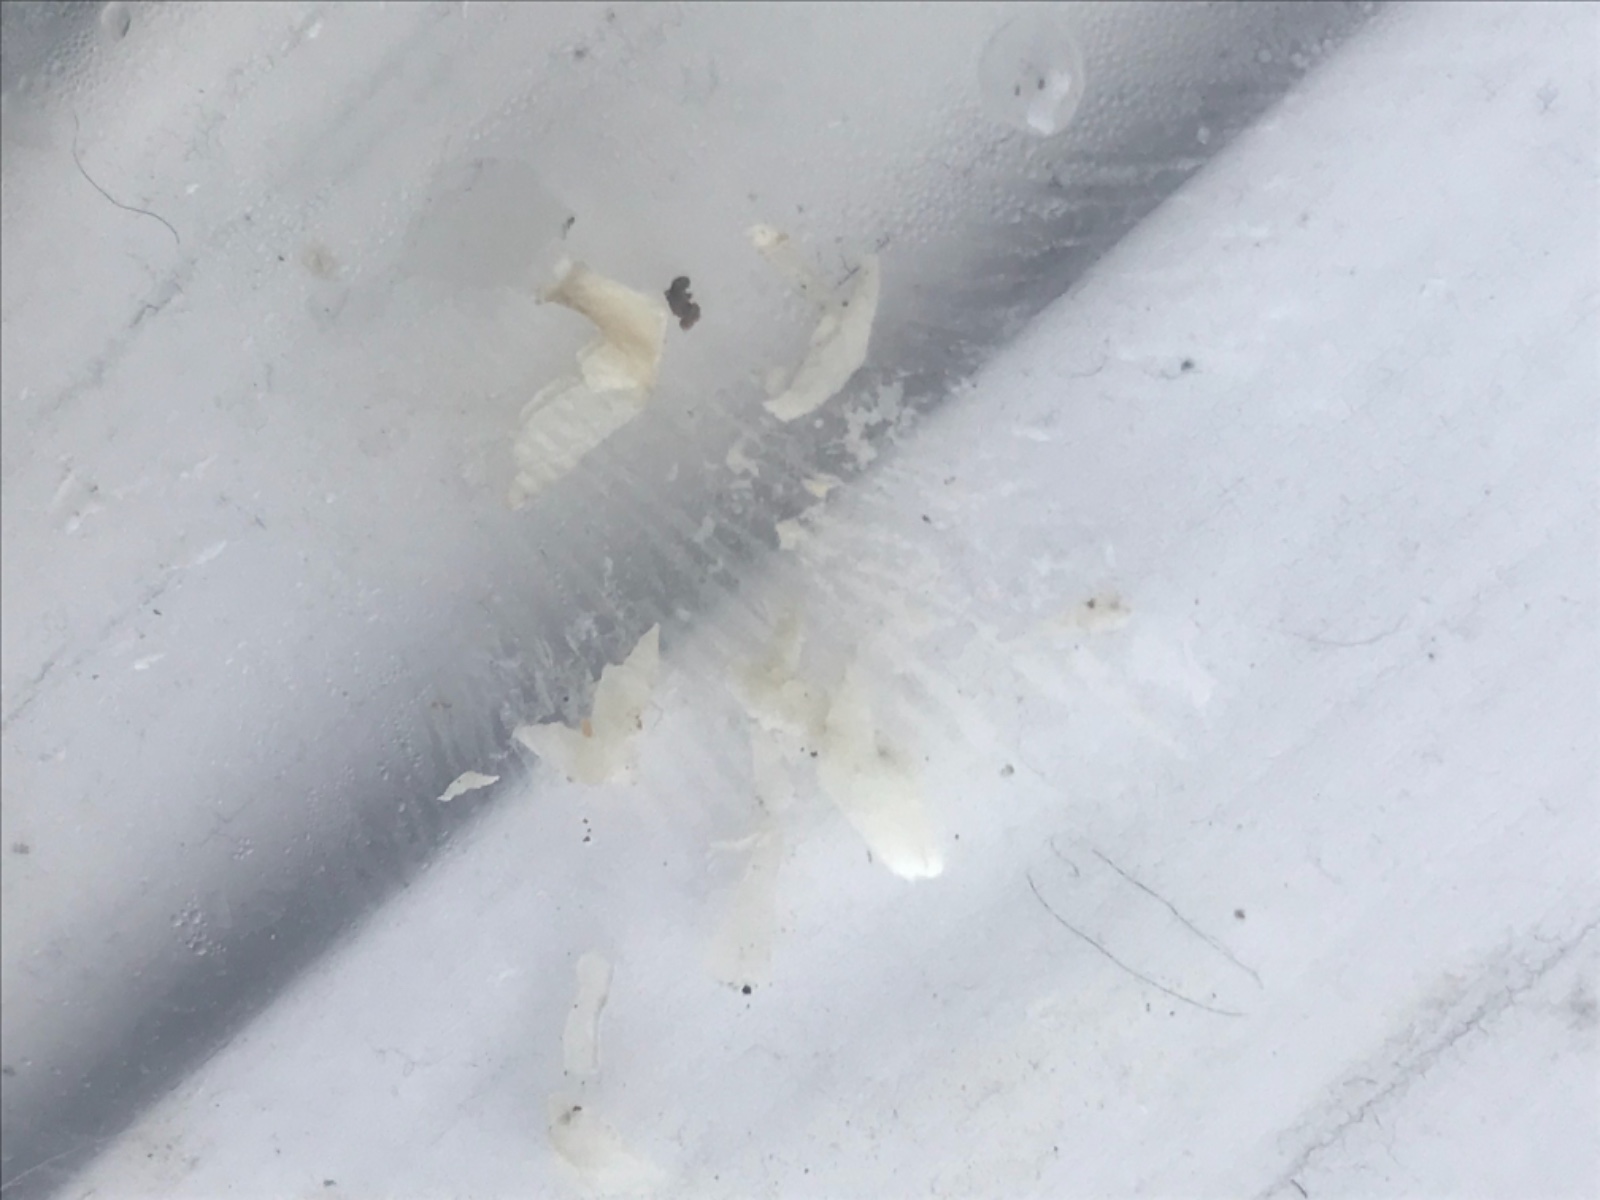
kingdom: Fungi
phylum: Basidiomycota
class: Agaricomycetes
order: Russulales
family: Russulaceae
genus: Russula
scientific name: Russula
